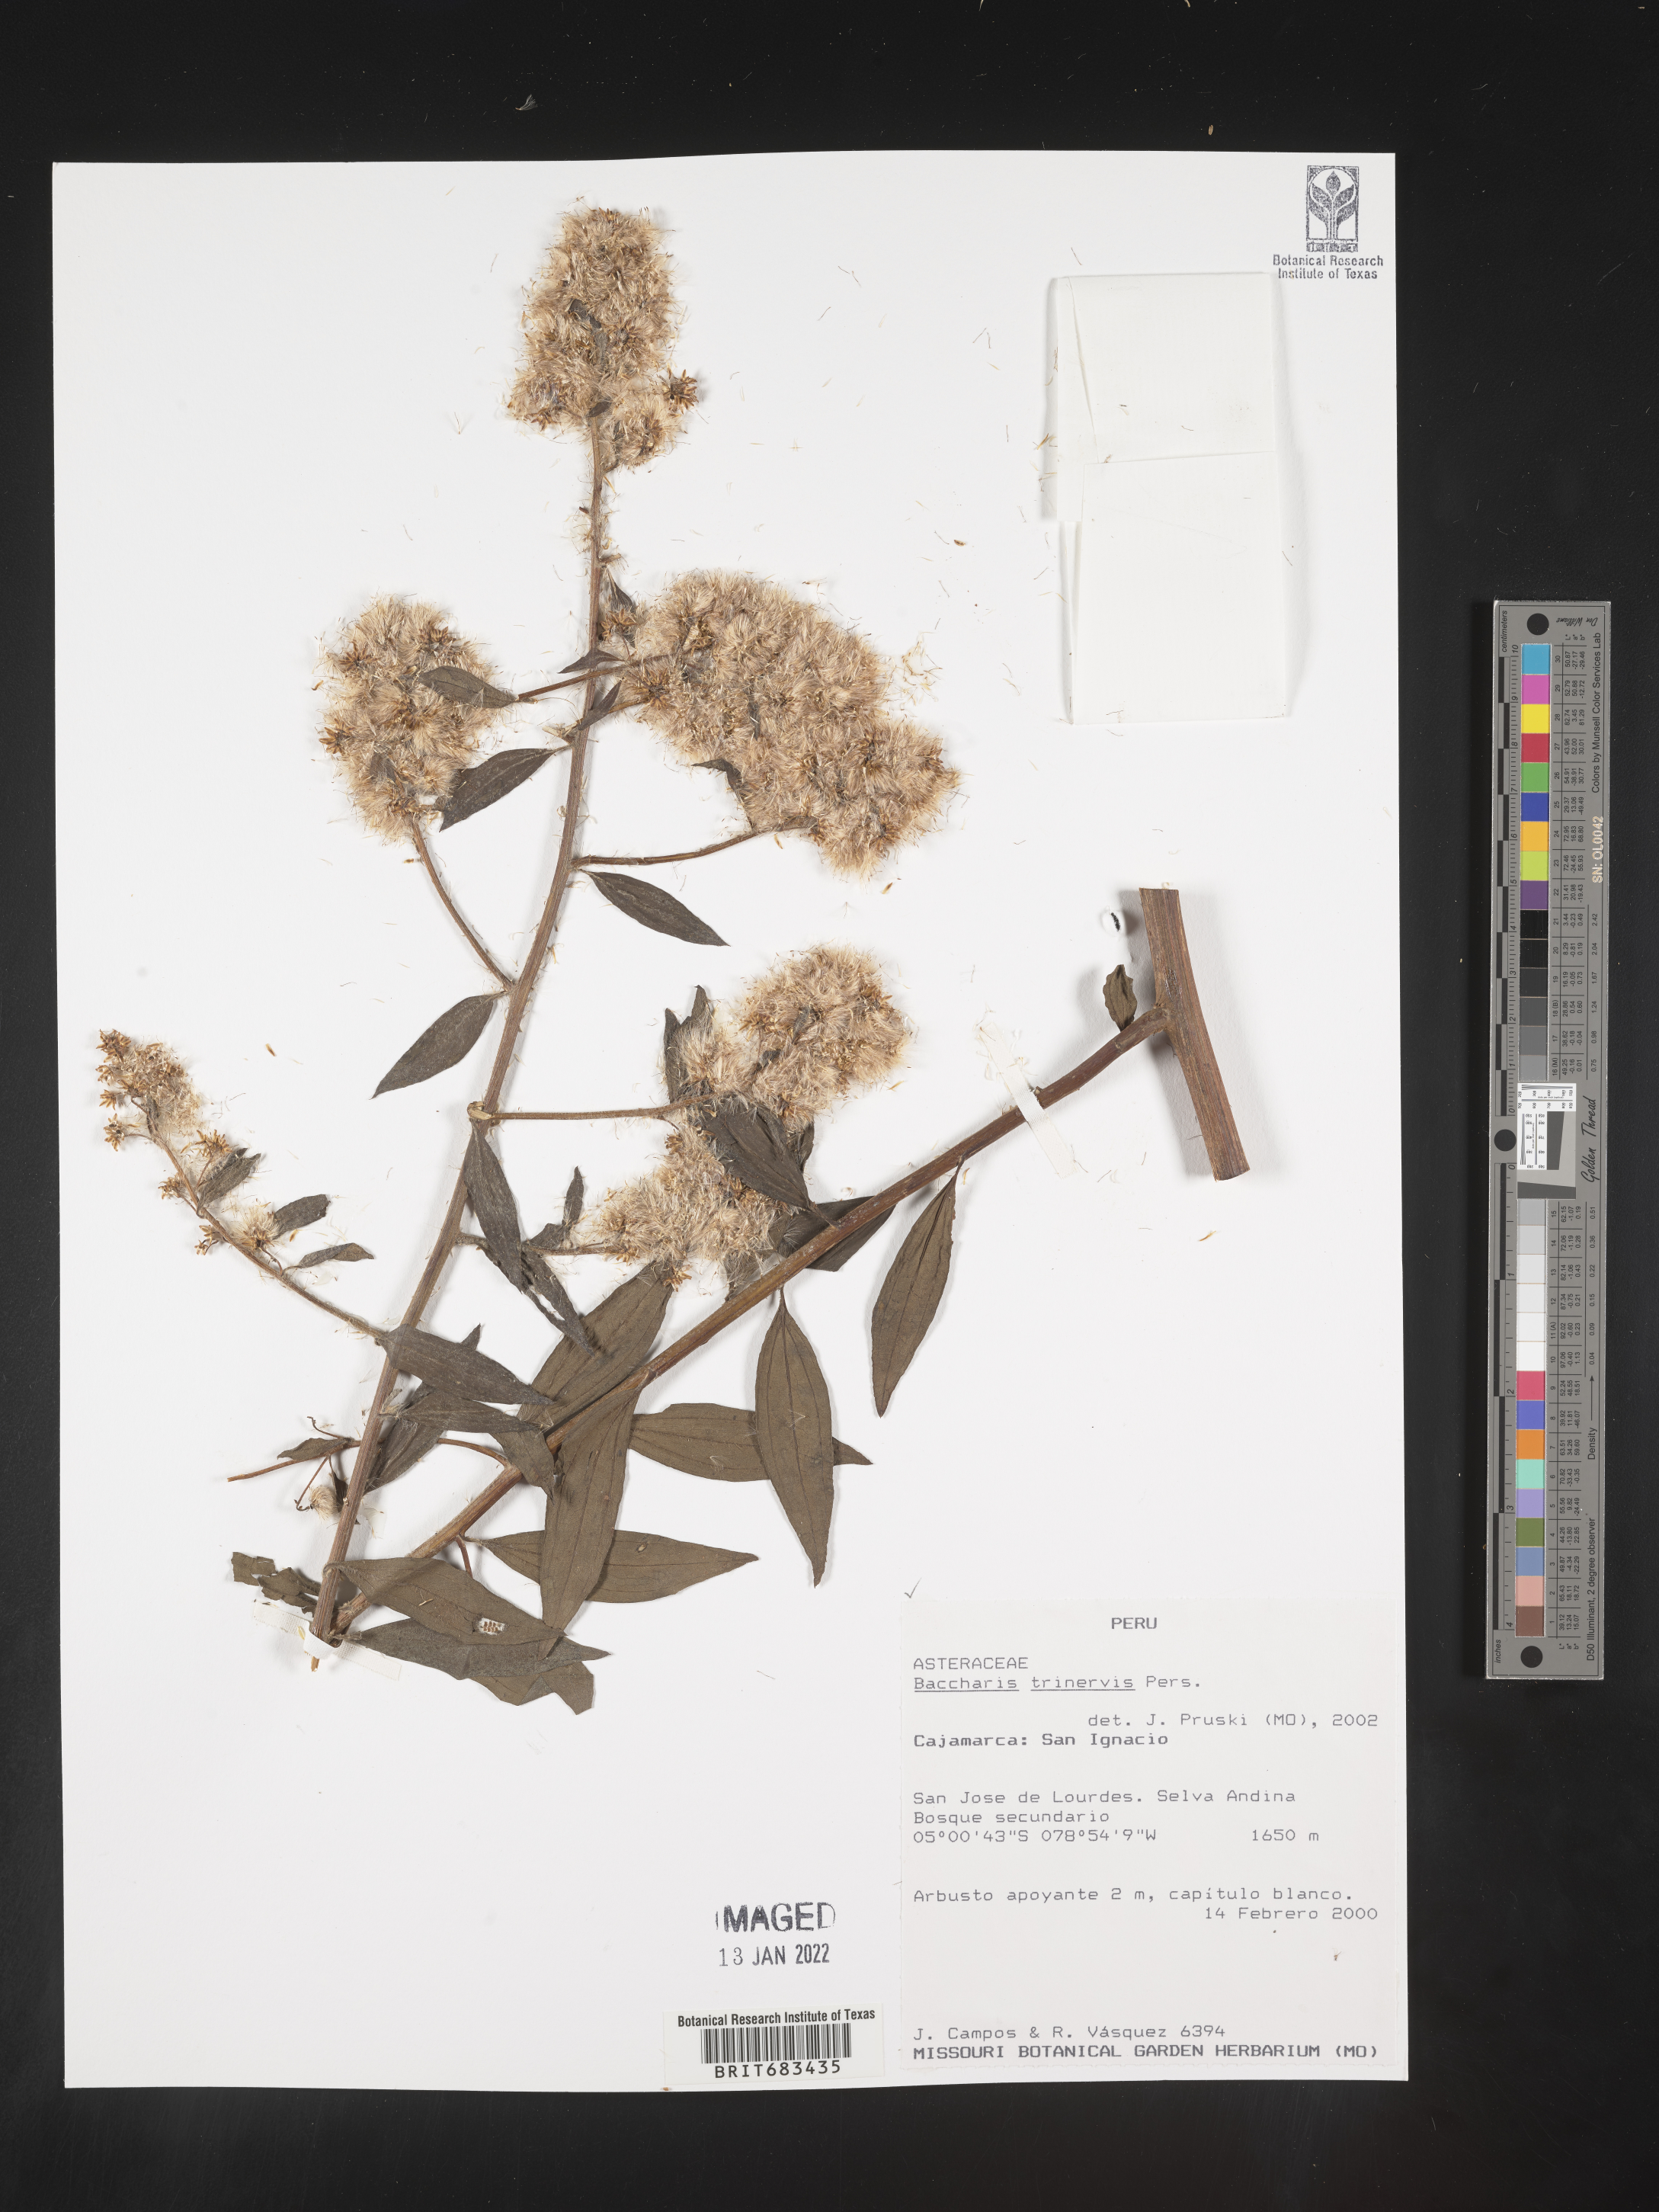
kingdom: Plantae
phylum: Tracheophyta
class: Magnoliopsida
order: Asterales
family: Asteraceae
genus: Baccharis
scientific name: Baccharis trinervis
